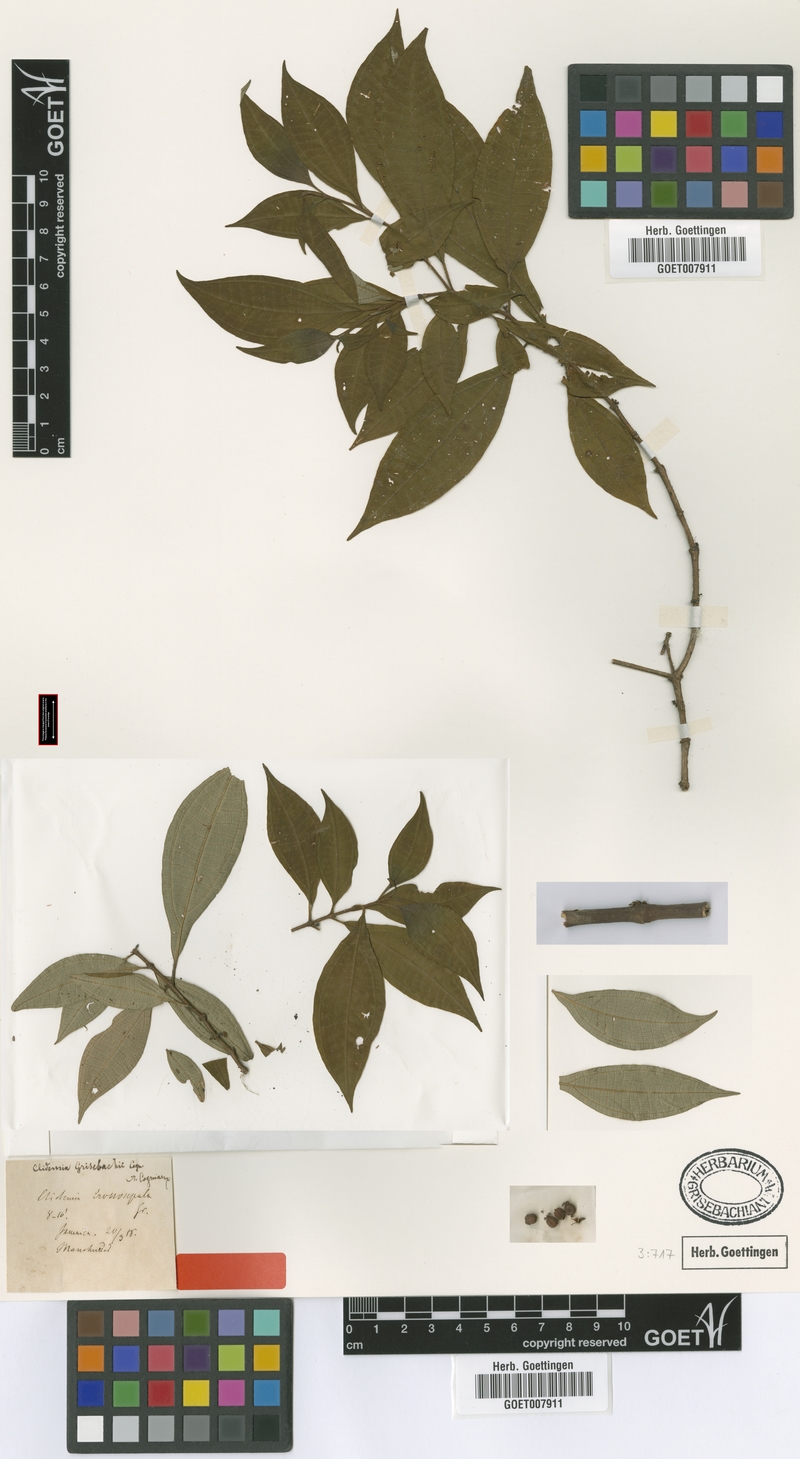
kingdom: Plantae
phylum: Tracheophyta
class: Magnoliopsida
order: Myrtales
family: Melastomataceae
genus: Miconia
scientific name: Miconia augustgrisebachii
